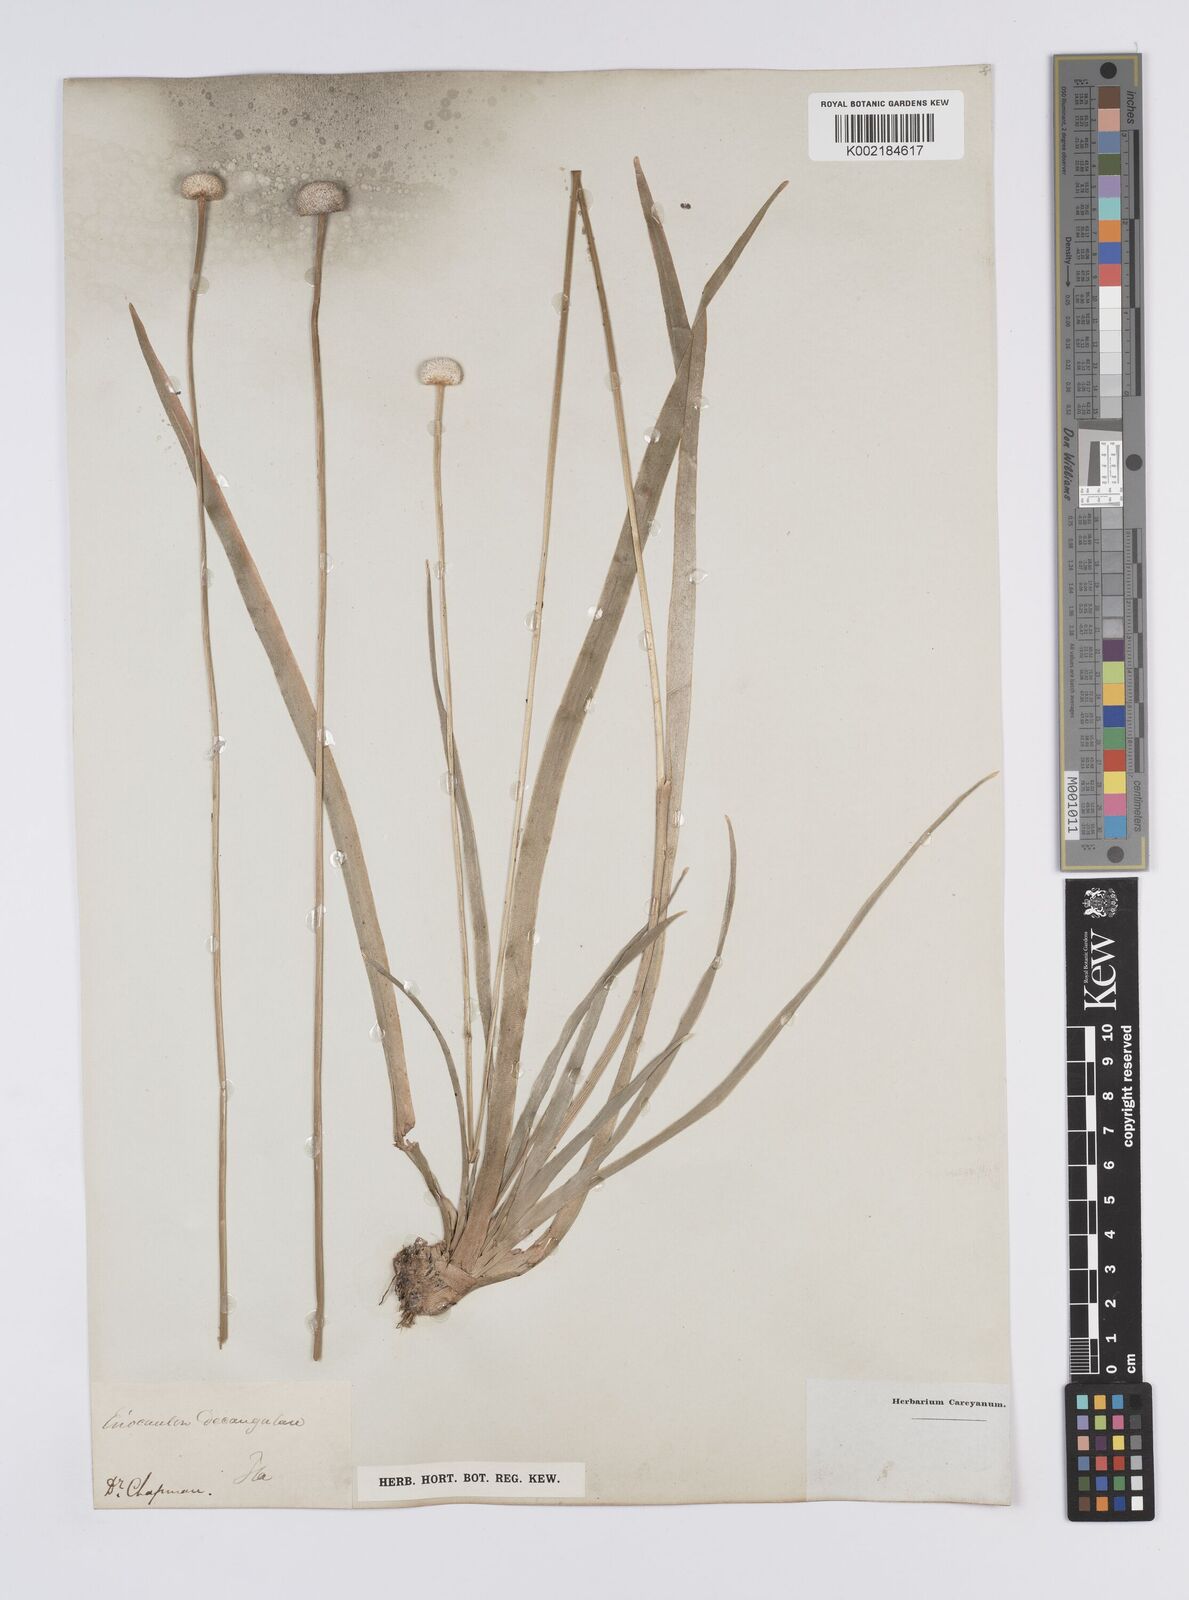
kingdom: Plantae
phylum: Tracheophyta
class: Liliopsida
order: Poales
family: Eriocaulaceae
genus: Eriocaulon
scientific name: Eriocaulon decangulare
